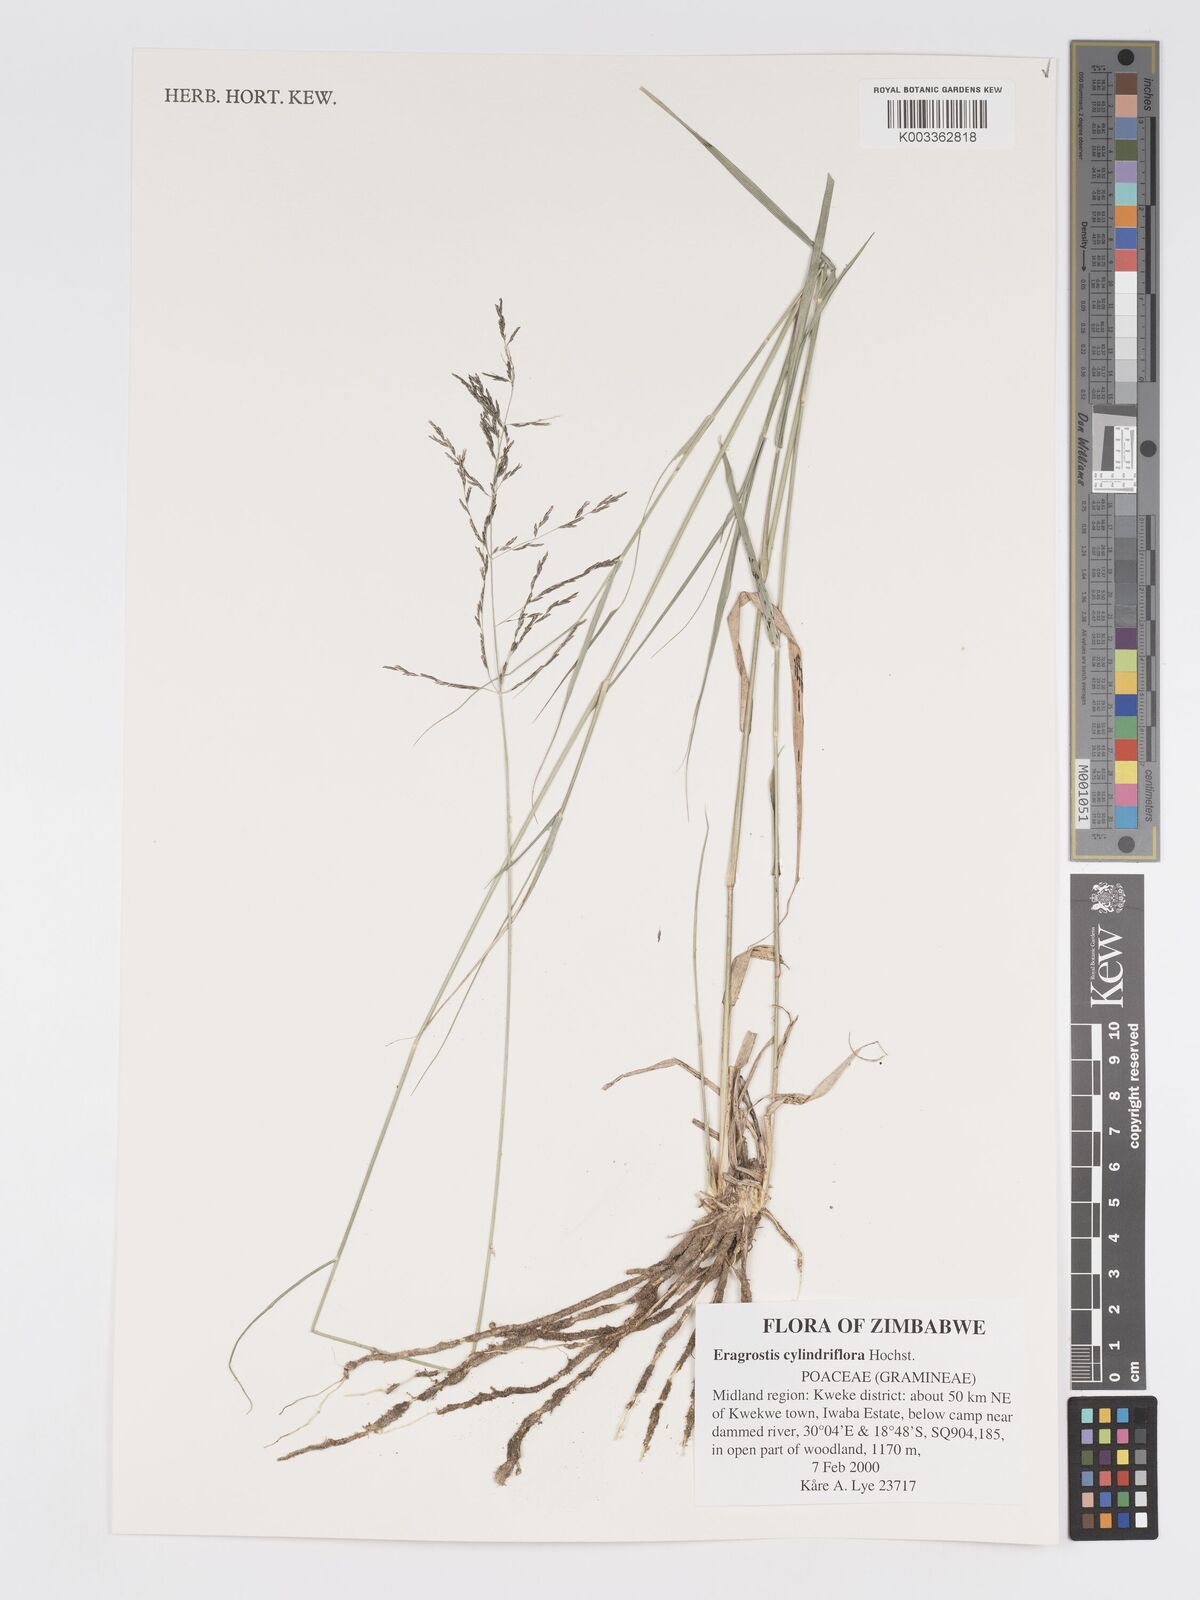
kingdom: Plantae
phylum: Tracheophyta
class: Liliopsida
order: Poales
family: Poaceae
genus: Eragrostis
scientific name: Eragrostis cylindriflora
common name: Cylinderflower lovegrass
